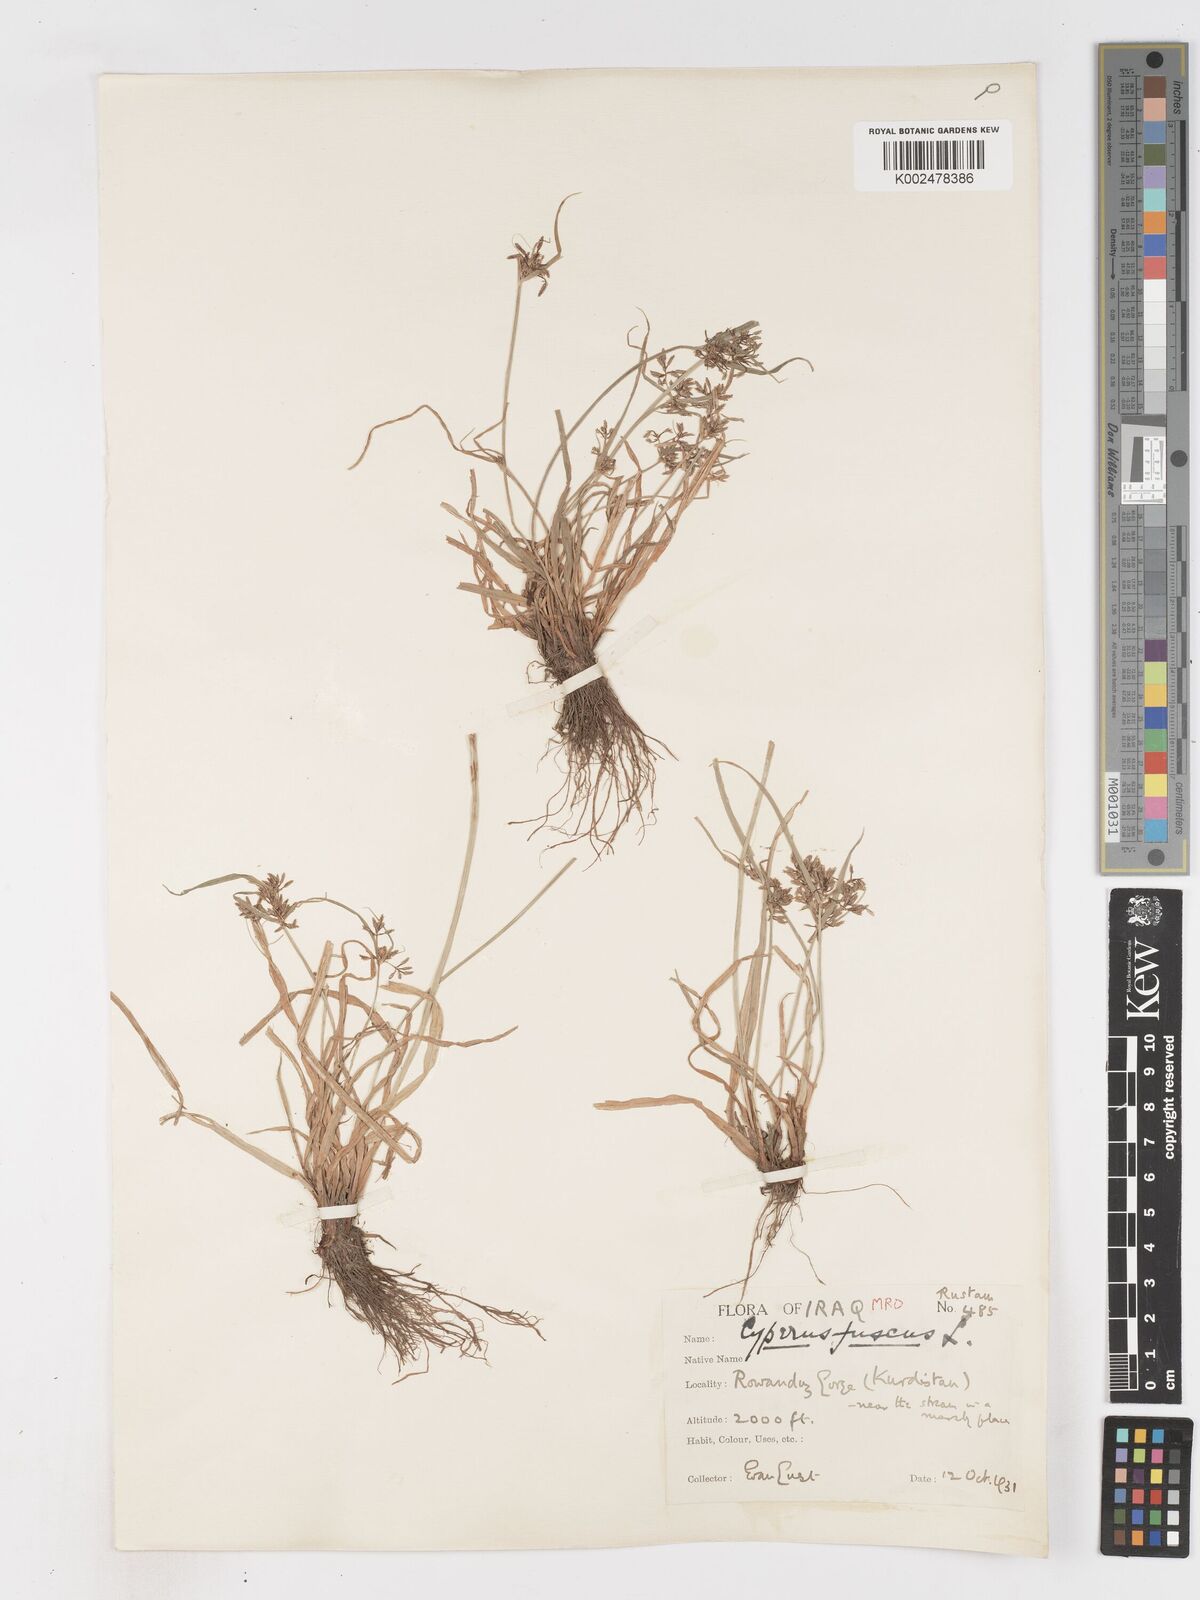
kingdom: Plantae
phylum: Tracheophyta
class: Liliopsida
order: Poales
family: Cyperaceae
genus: Cyperus
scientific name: Cyperus fuscus
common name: Brown galingale
